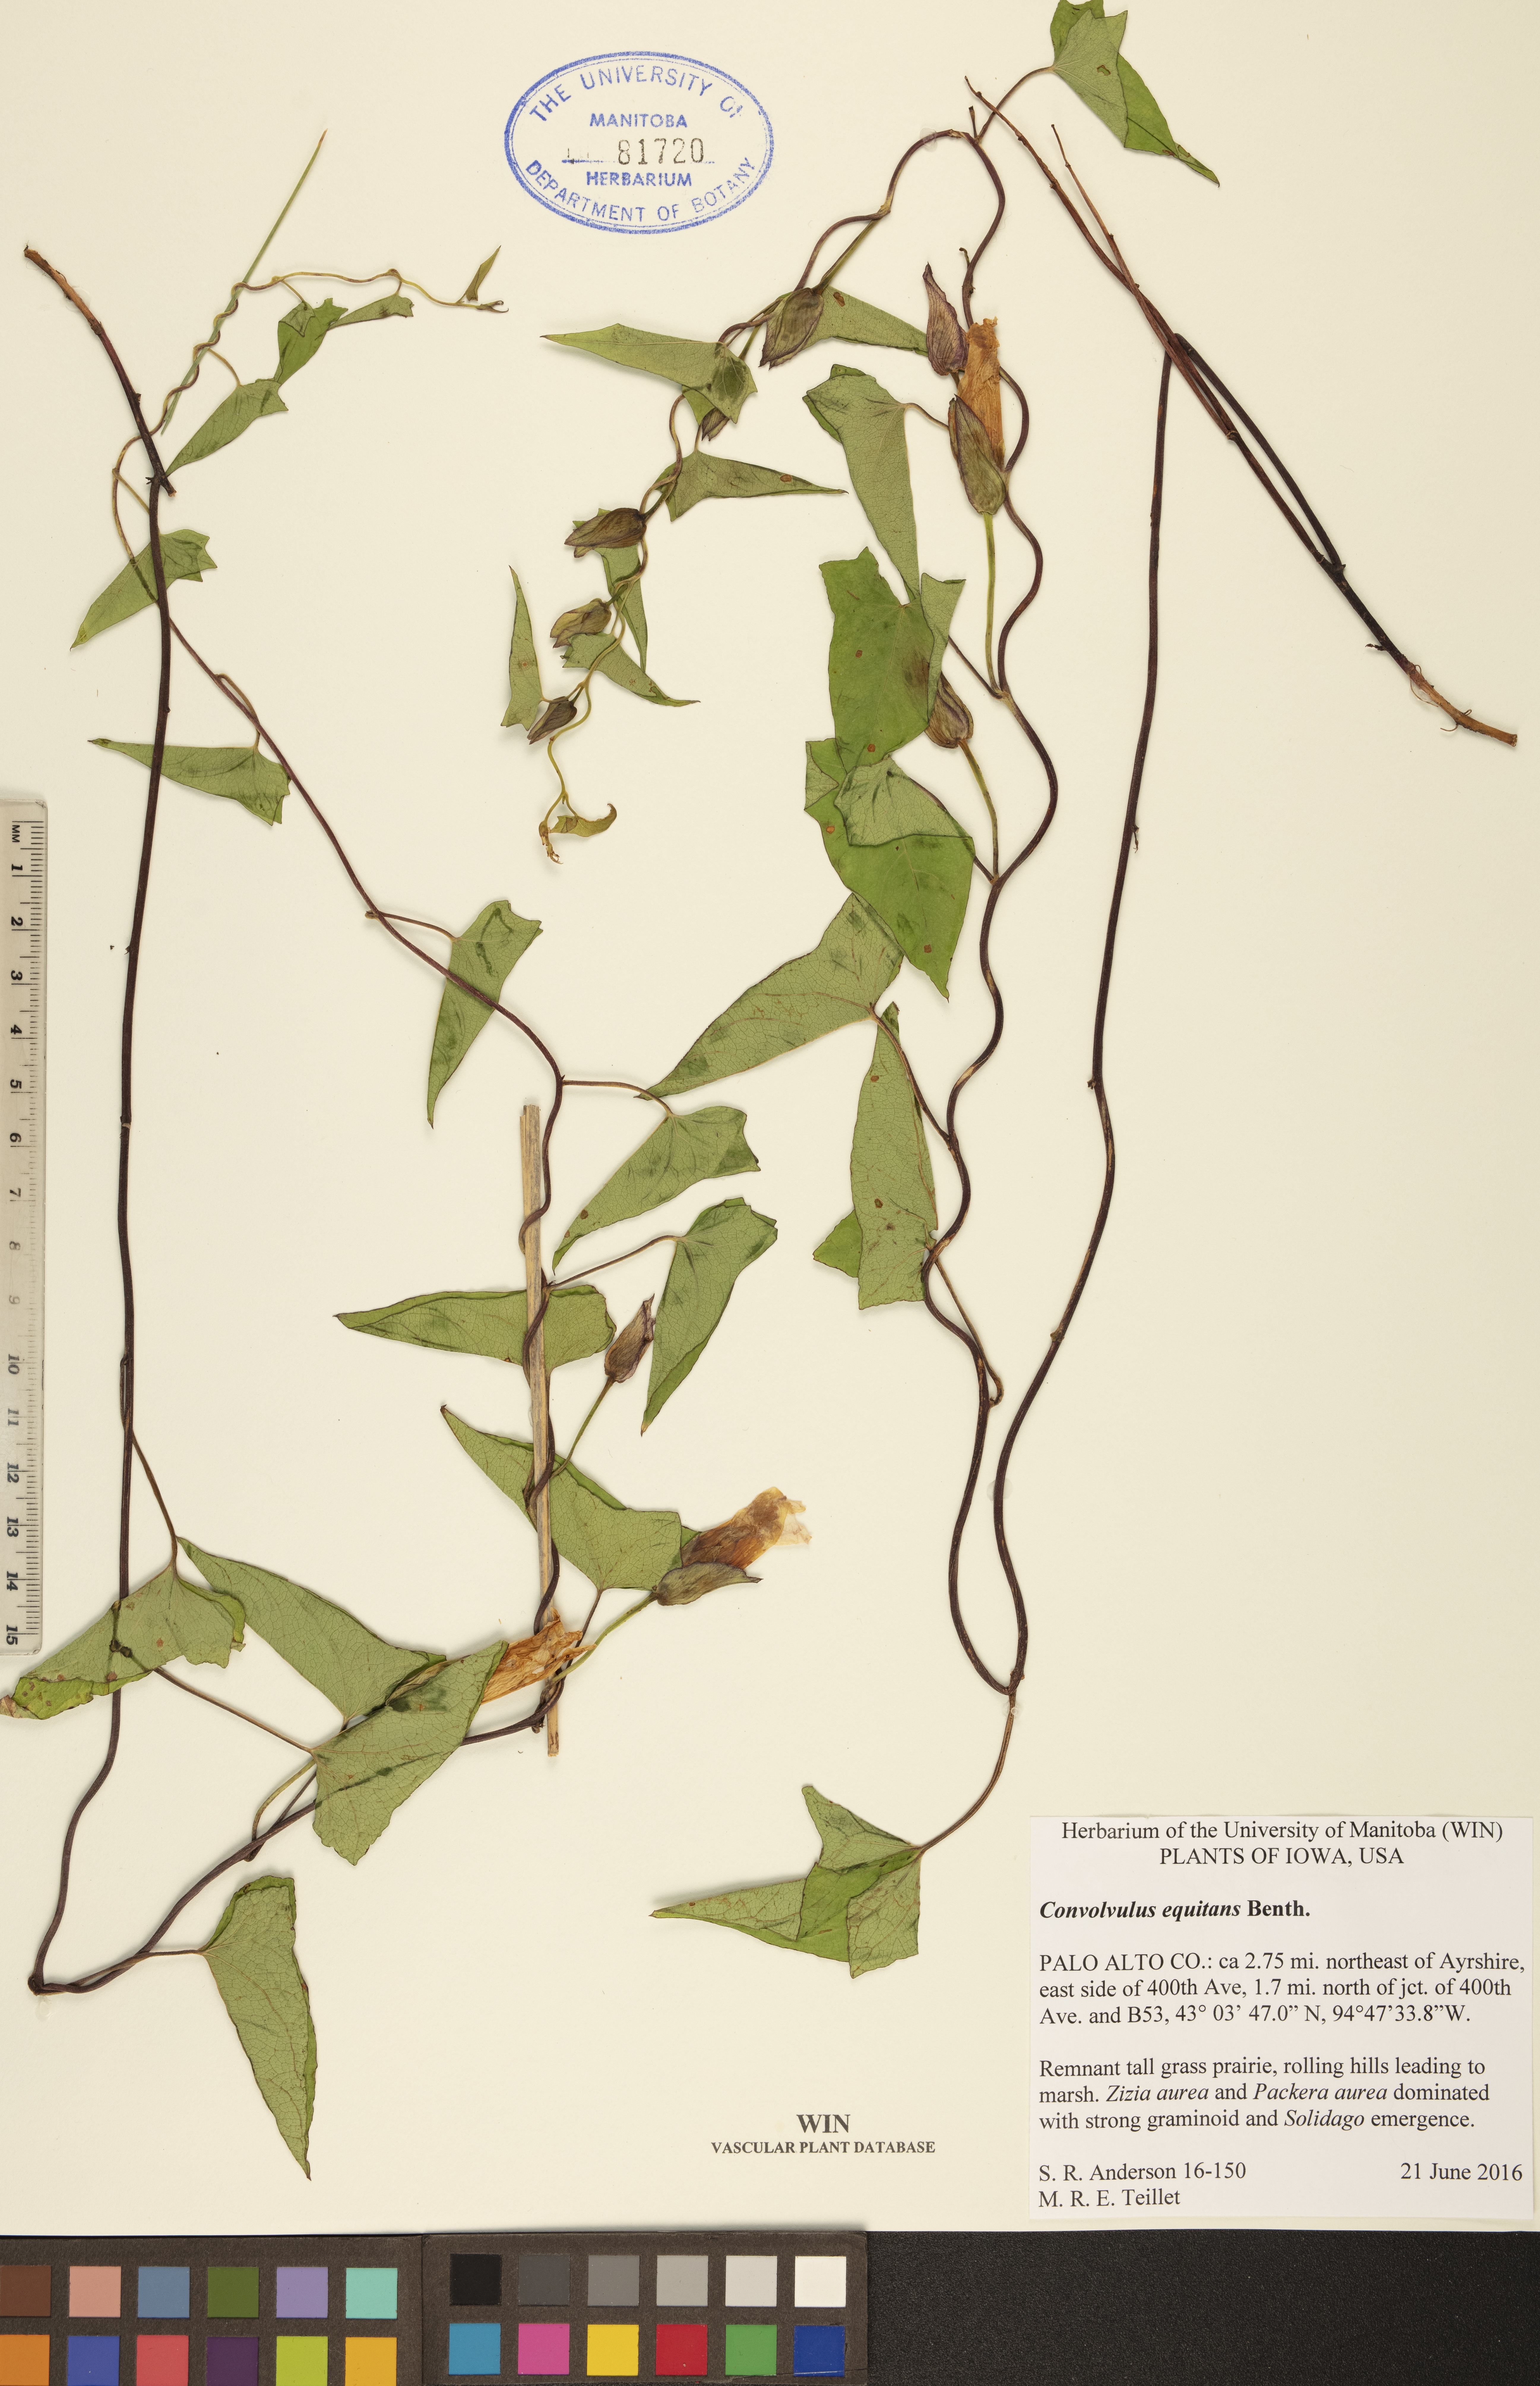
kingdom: Plantae
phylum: Tracheophyta
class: Magnoliopsida
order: Solanales
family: Convolvulaceae
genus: Convolvulus
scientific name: Convolvulus equitans
